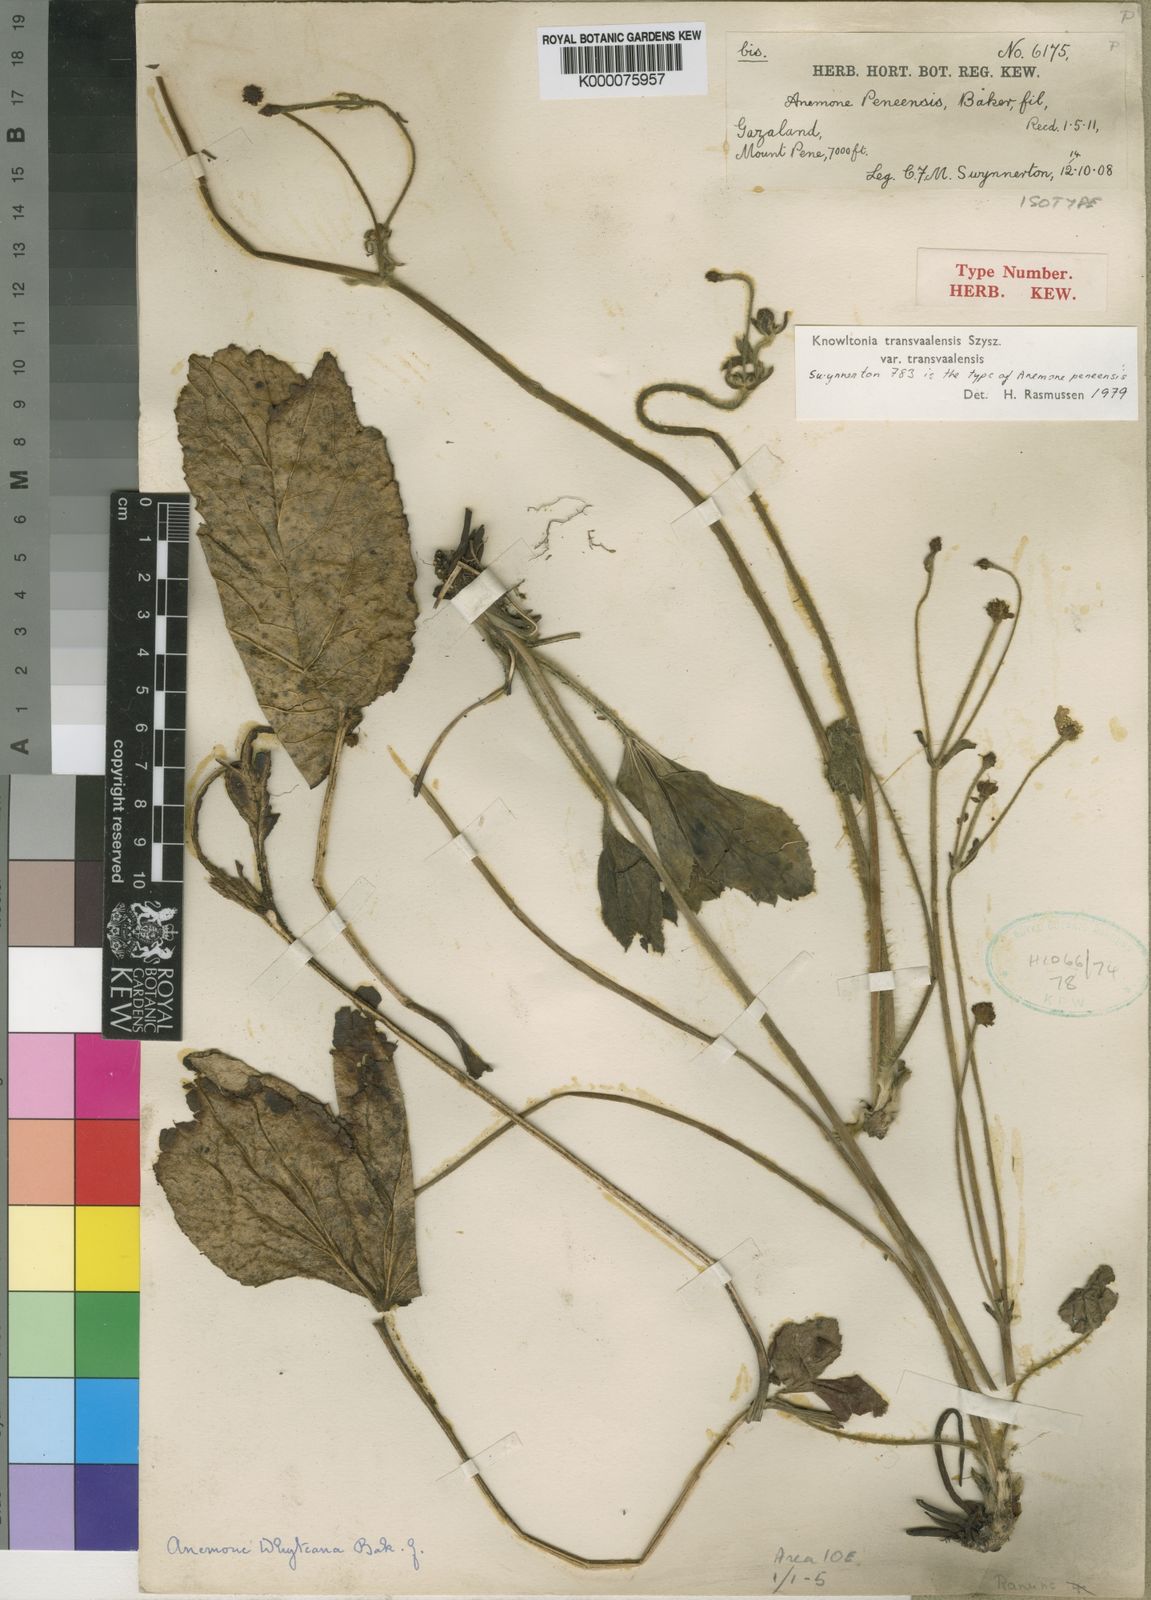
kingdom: Plantae
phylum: Tracheophyta
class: Magnoliopsida
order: Ranunculales
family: Ranunculaceae
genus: Knowltonia
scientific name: Knowltonia transvaalensis
